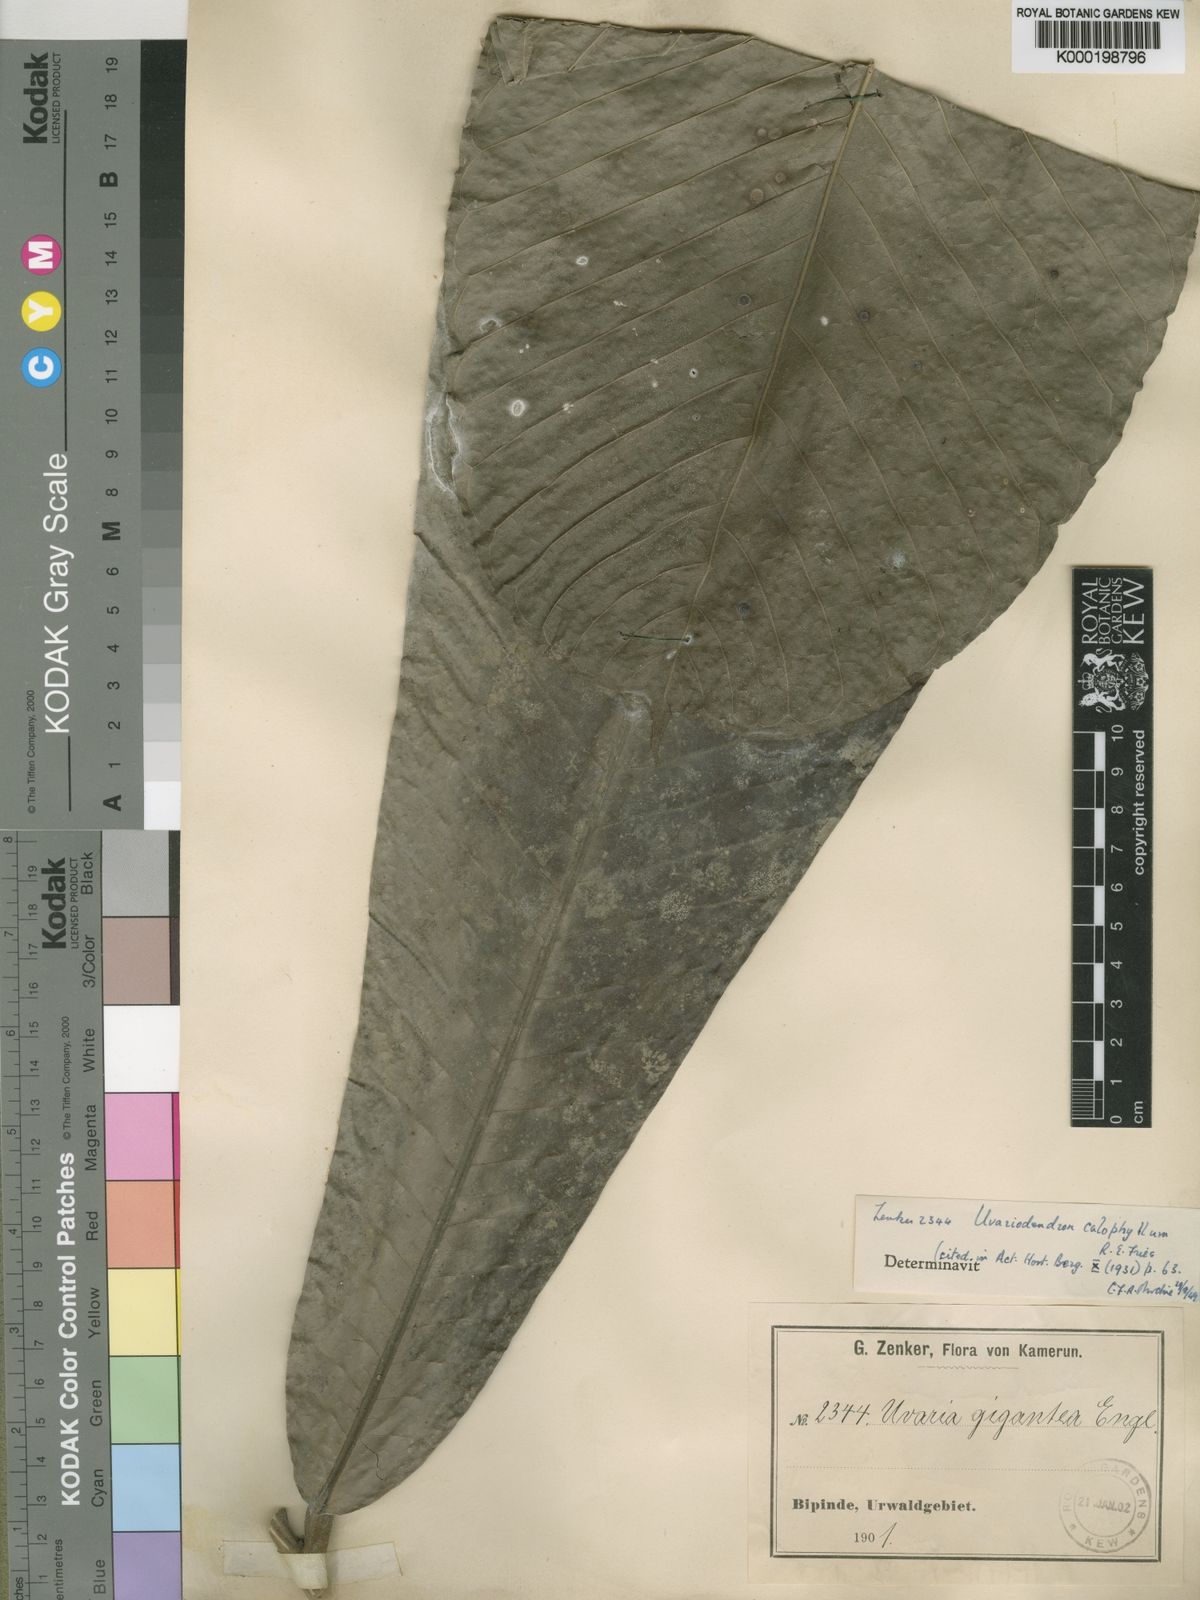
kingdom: Plantae
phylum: Tracheophyta
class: Magnoliopsida
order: Magnoliales
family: Annonaceae
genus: Uvariodendron
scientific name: Uvariodendron calophyllum
